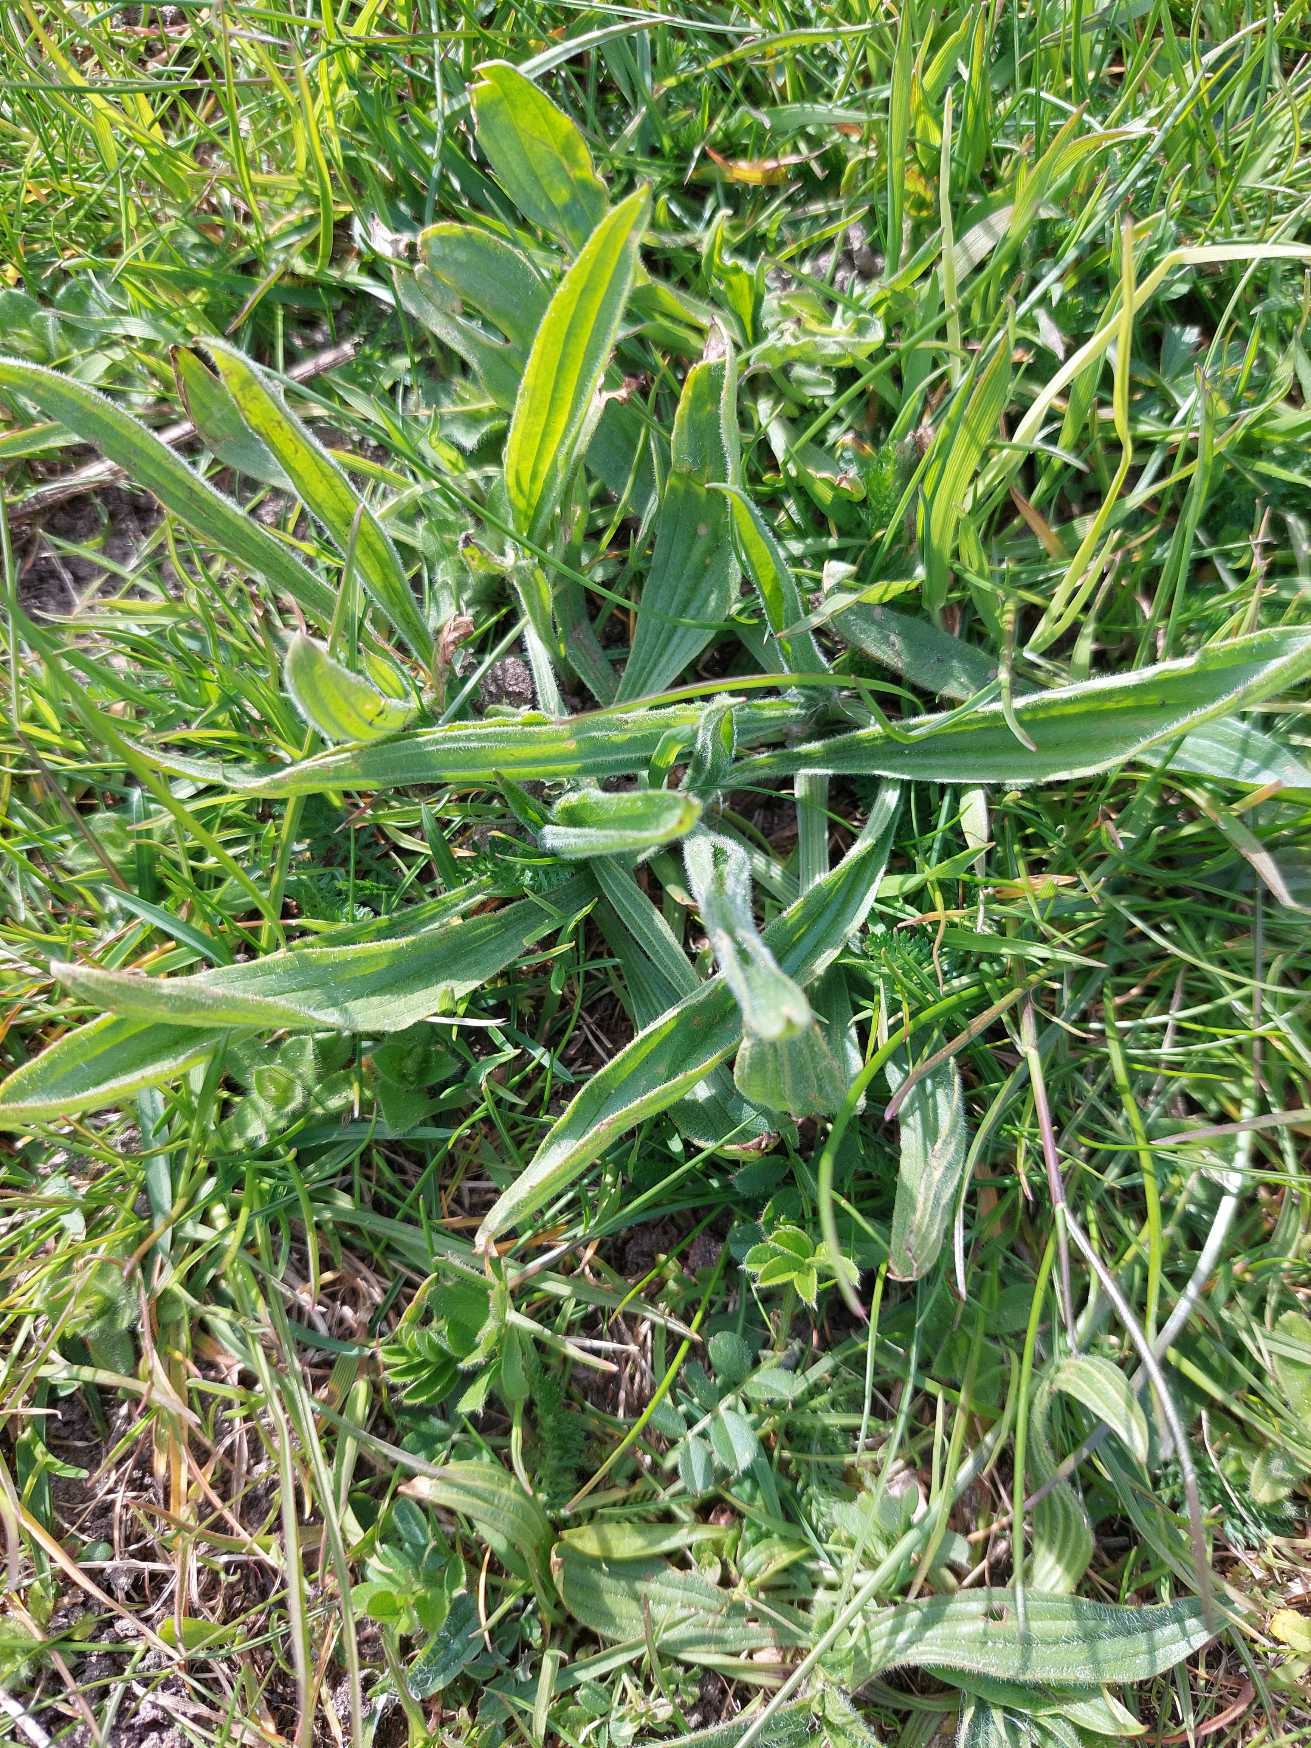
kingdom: Plantae
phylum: Tracheophyta
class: Magnoliopsida
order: Lamiales
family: Plantaginaceae
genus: Plantago
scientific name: Plantago lanceolata
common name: Lancet-vejbred
